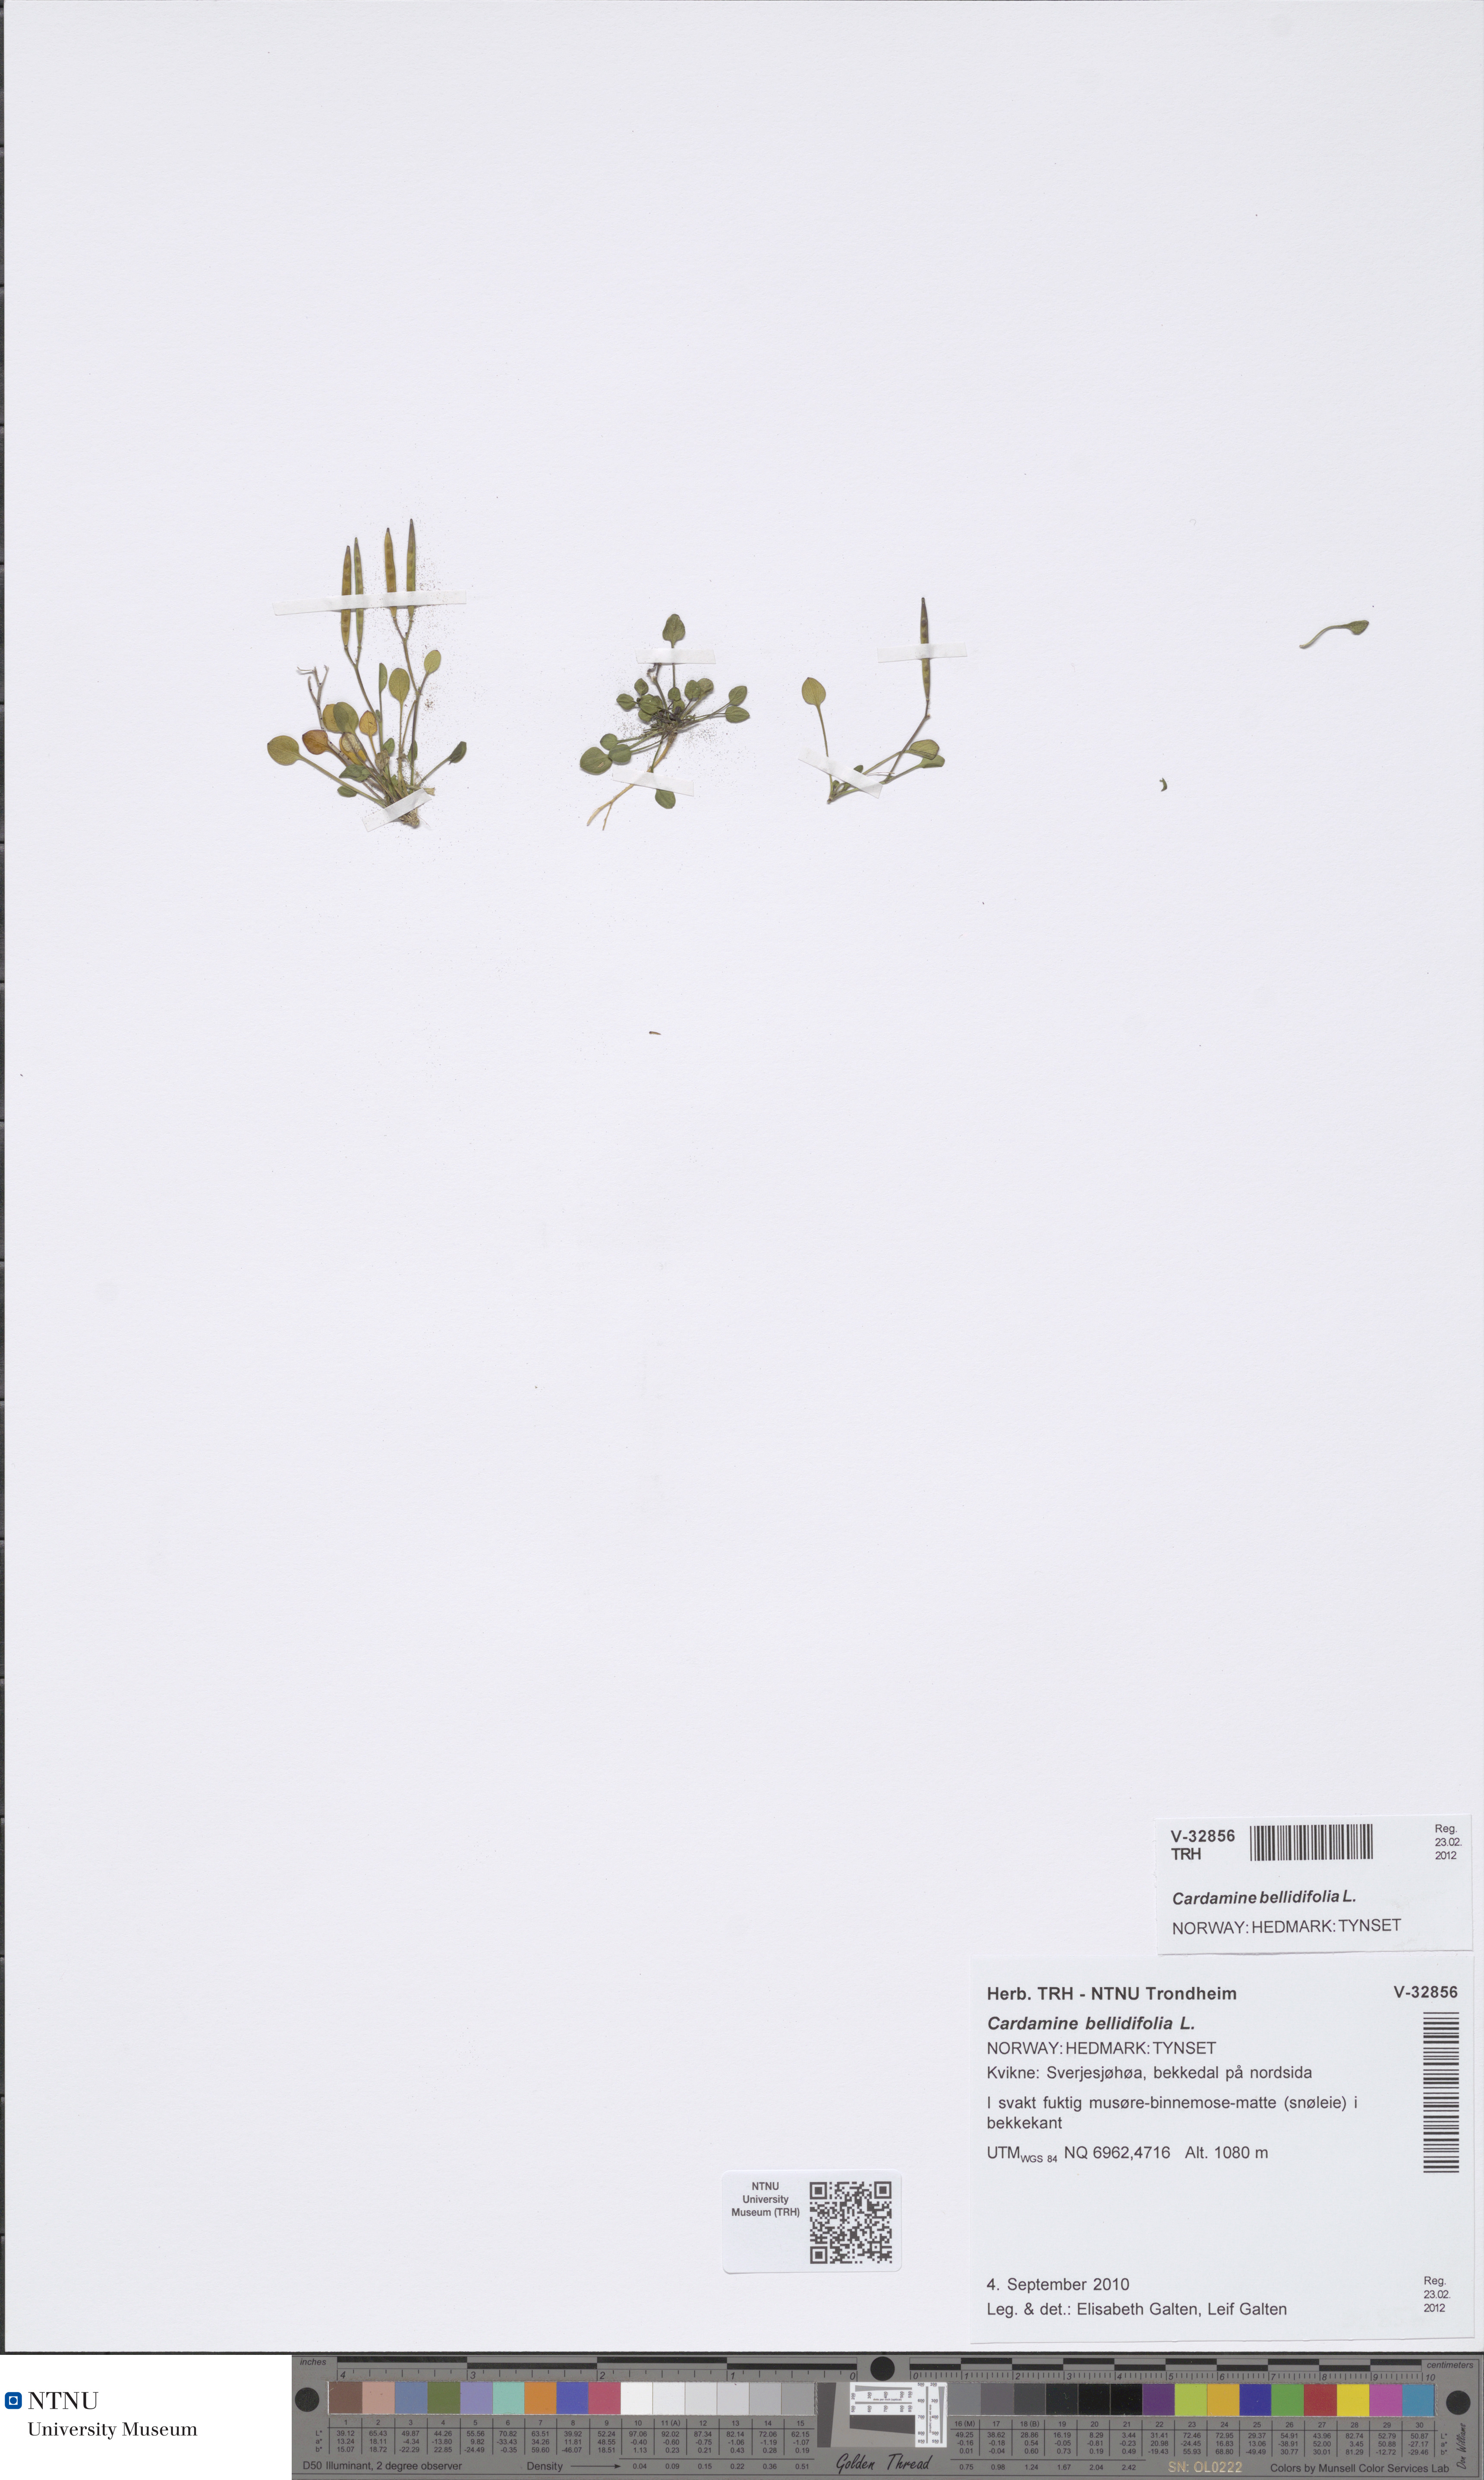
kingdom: Plantae
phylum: Tracheophyta
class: Magnoliopsida
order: Brassicales
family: Brassicaceae
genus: Cardamine
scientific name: Cardamine bellidifolia
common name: Alpine bittercress
